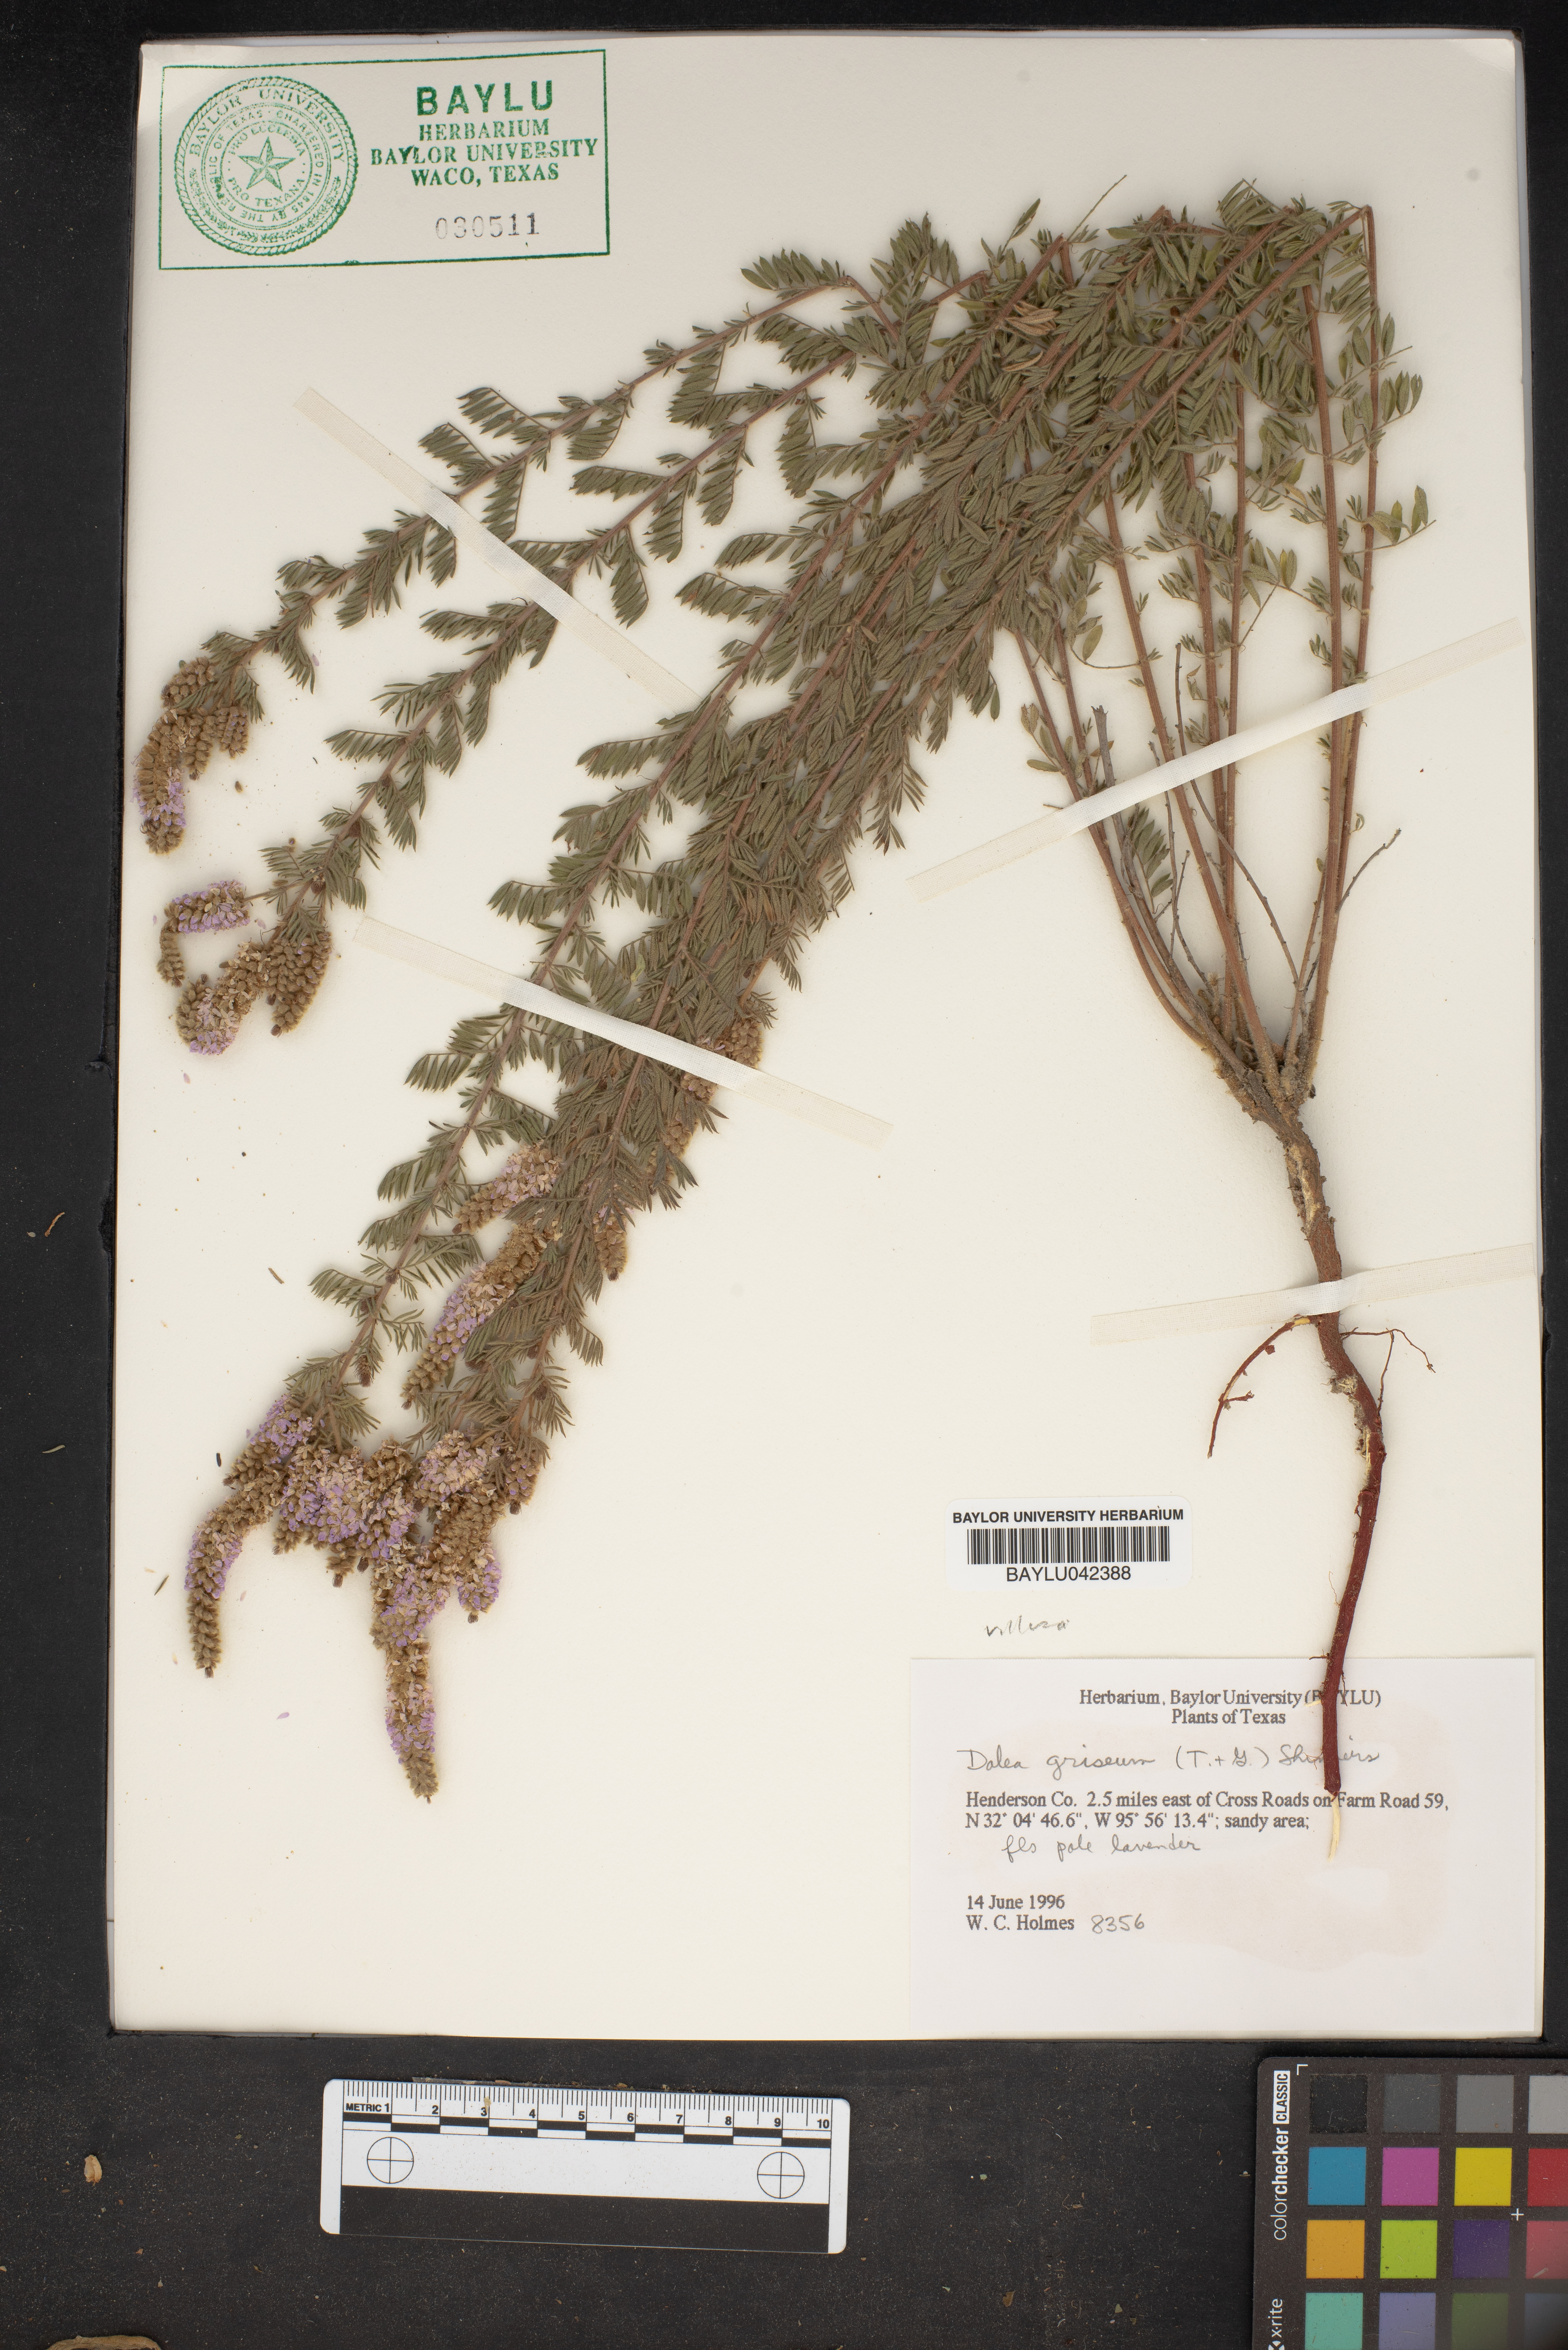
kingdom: Plantae
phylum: Tracheophyta
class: Magnoliopsida
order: Fabales
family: Fabaceae
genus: Dalea
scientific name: Dalea villosa
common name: Silky prairie-clover
